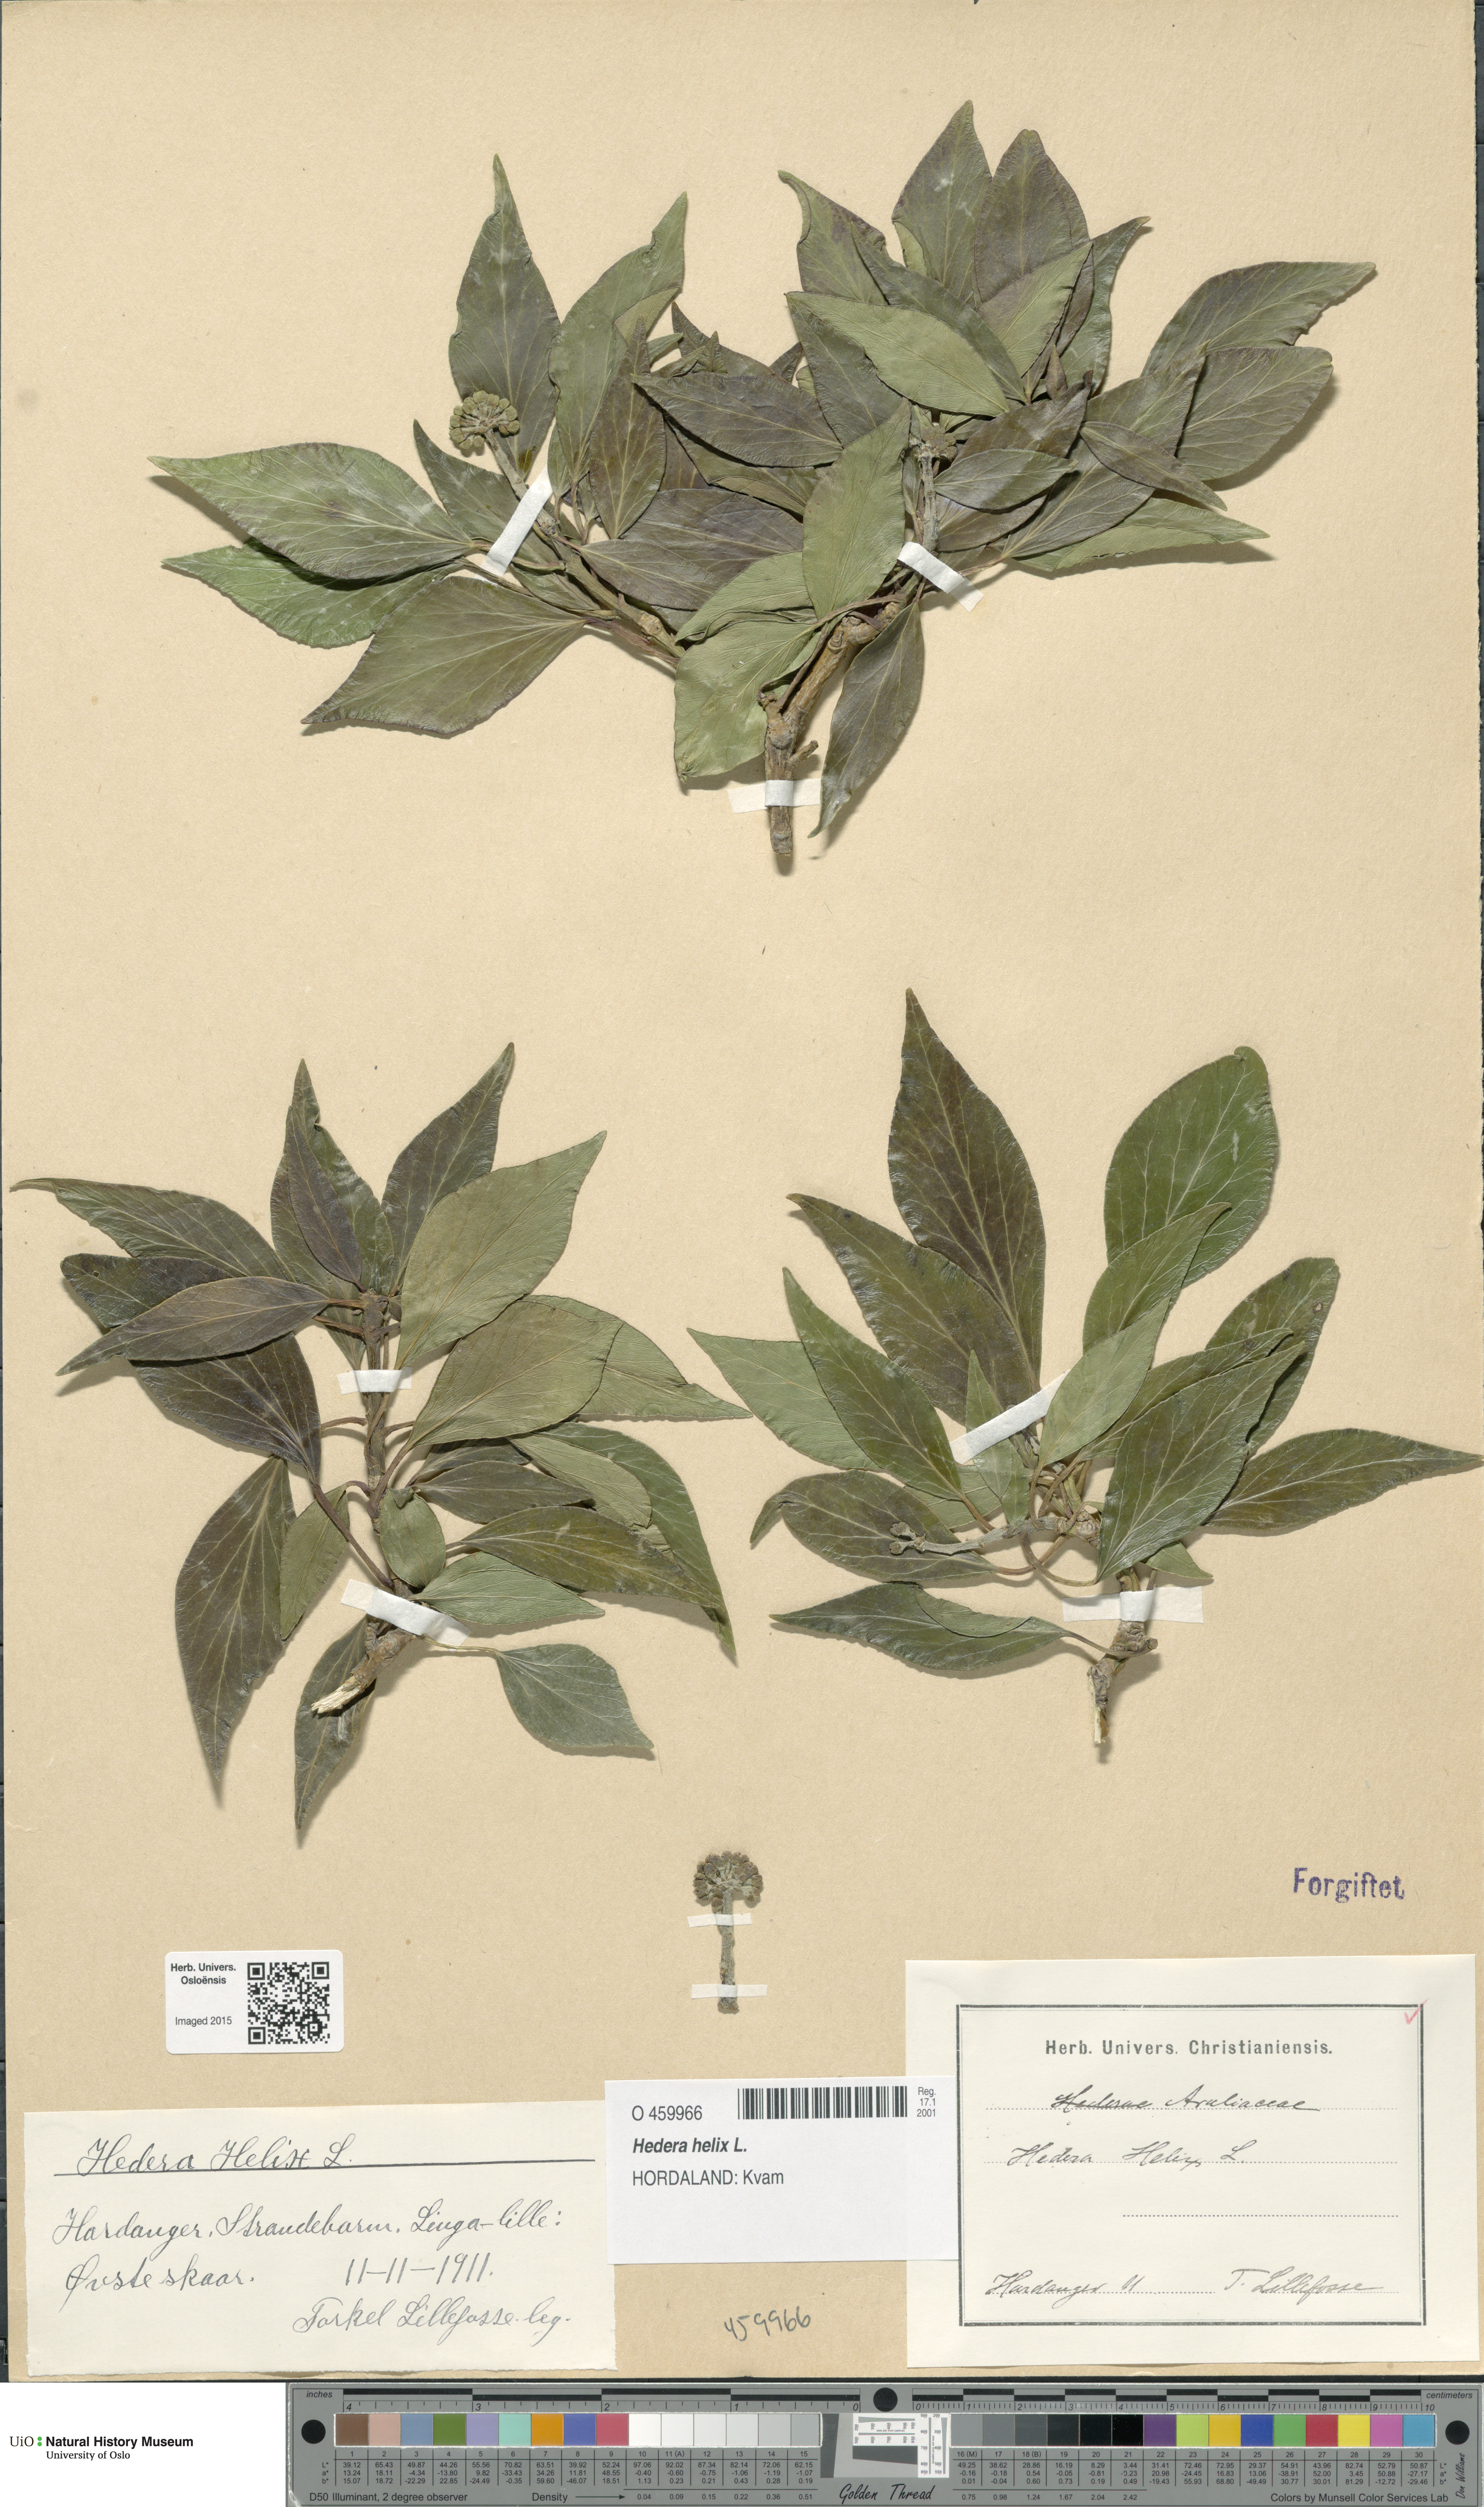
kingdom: Plantae
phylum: Tracheophyta
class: Magnoliopsida
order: Apiales
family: Araliaceae
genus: Hedera
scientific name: Hedera helix
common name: Ivy
